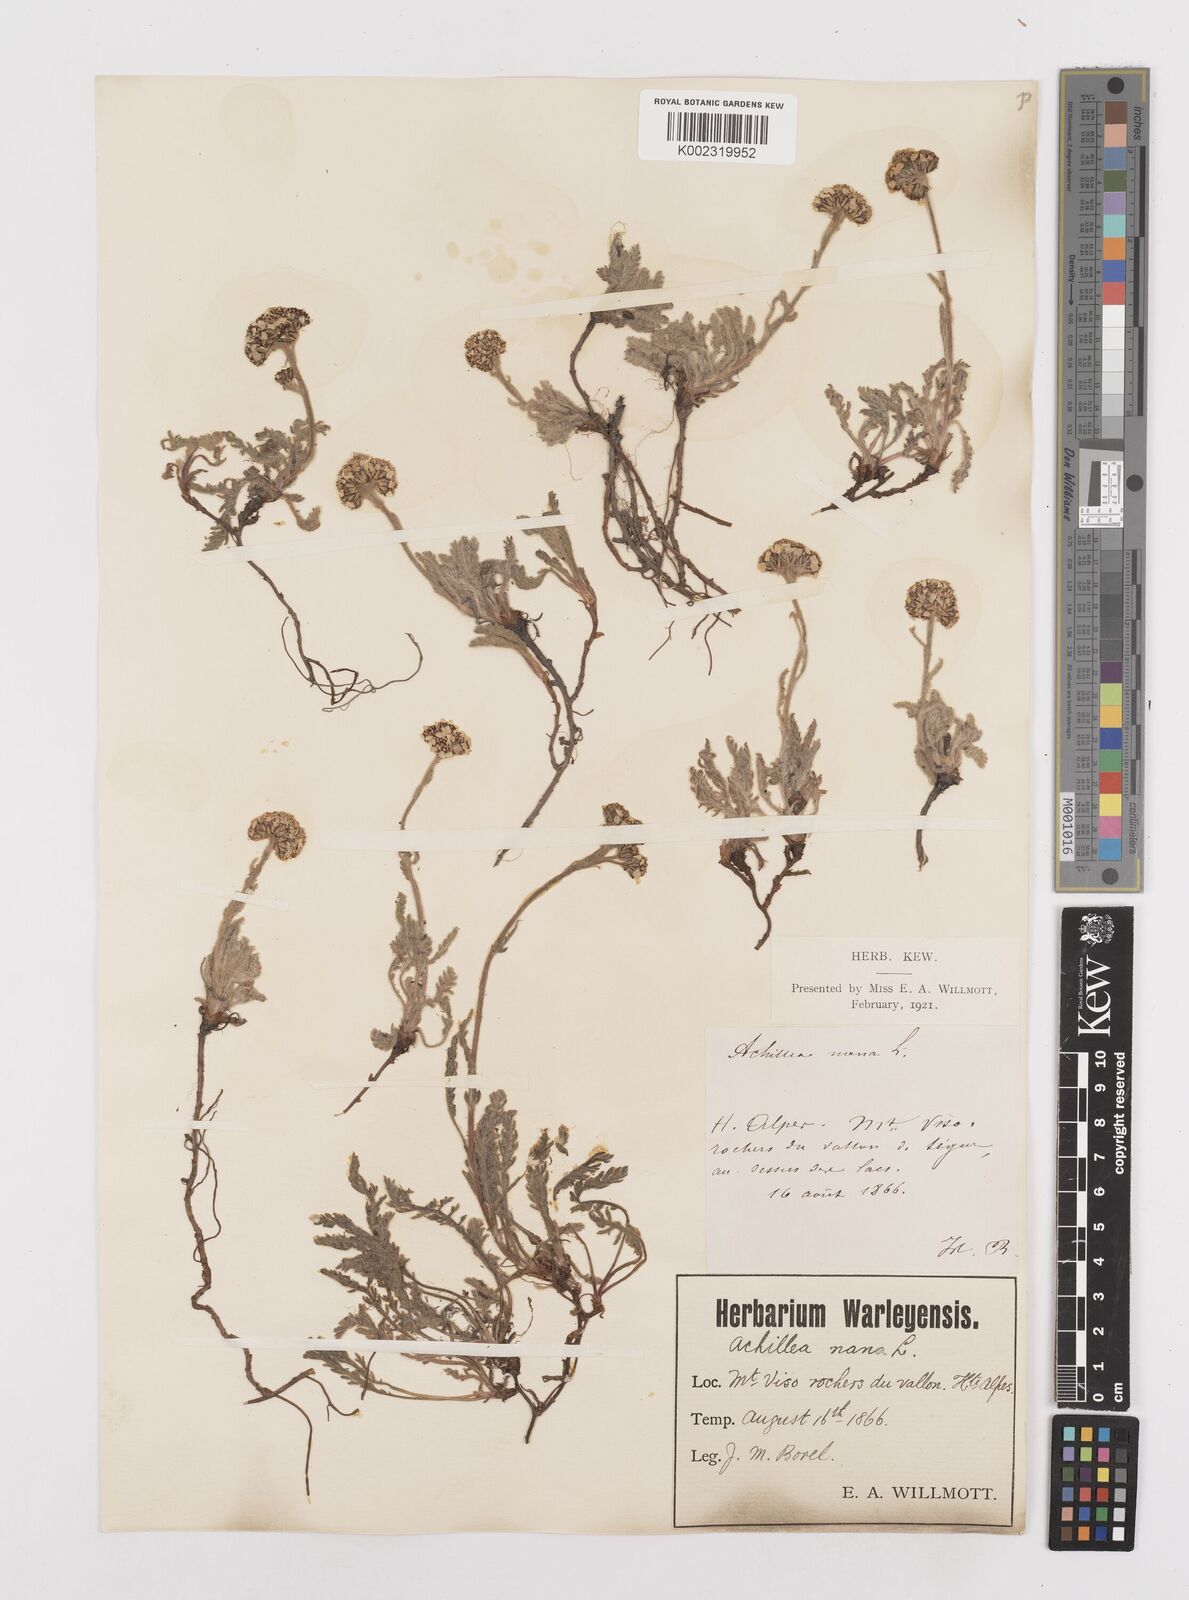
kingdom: Plantae
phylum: Tracheophyta
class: Magnoliopsida
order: Asterales
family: Asteraceae
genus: Achillea
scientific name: Achillea
